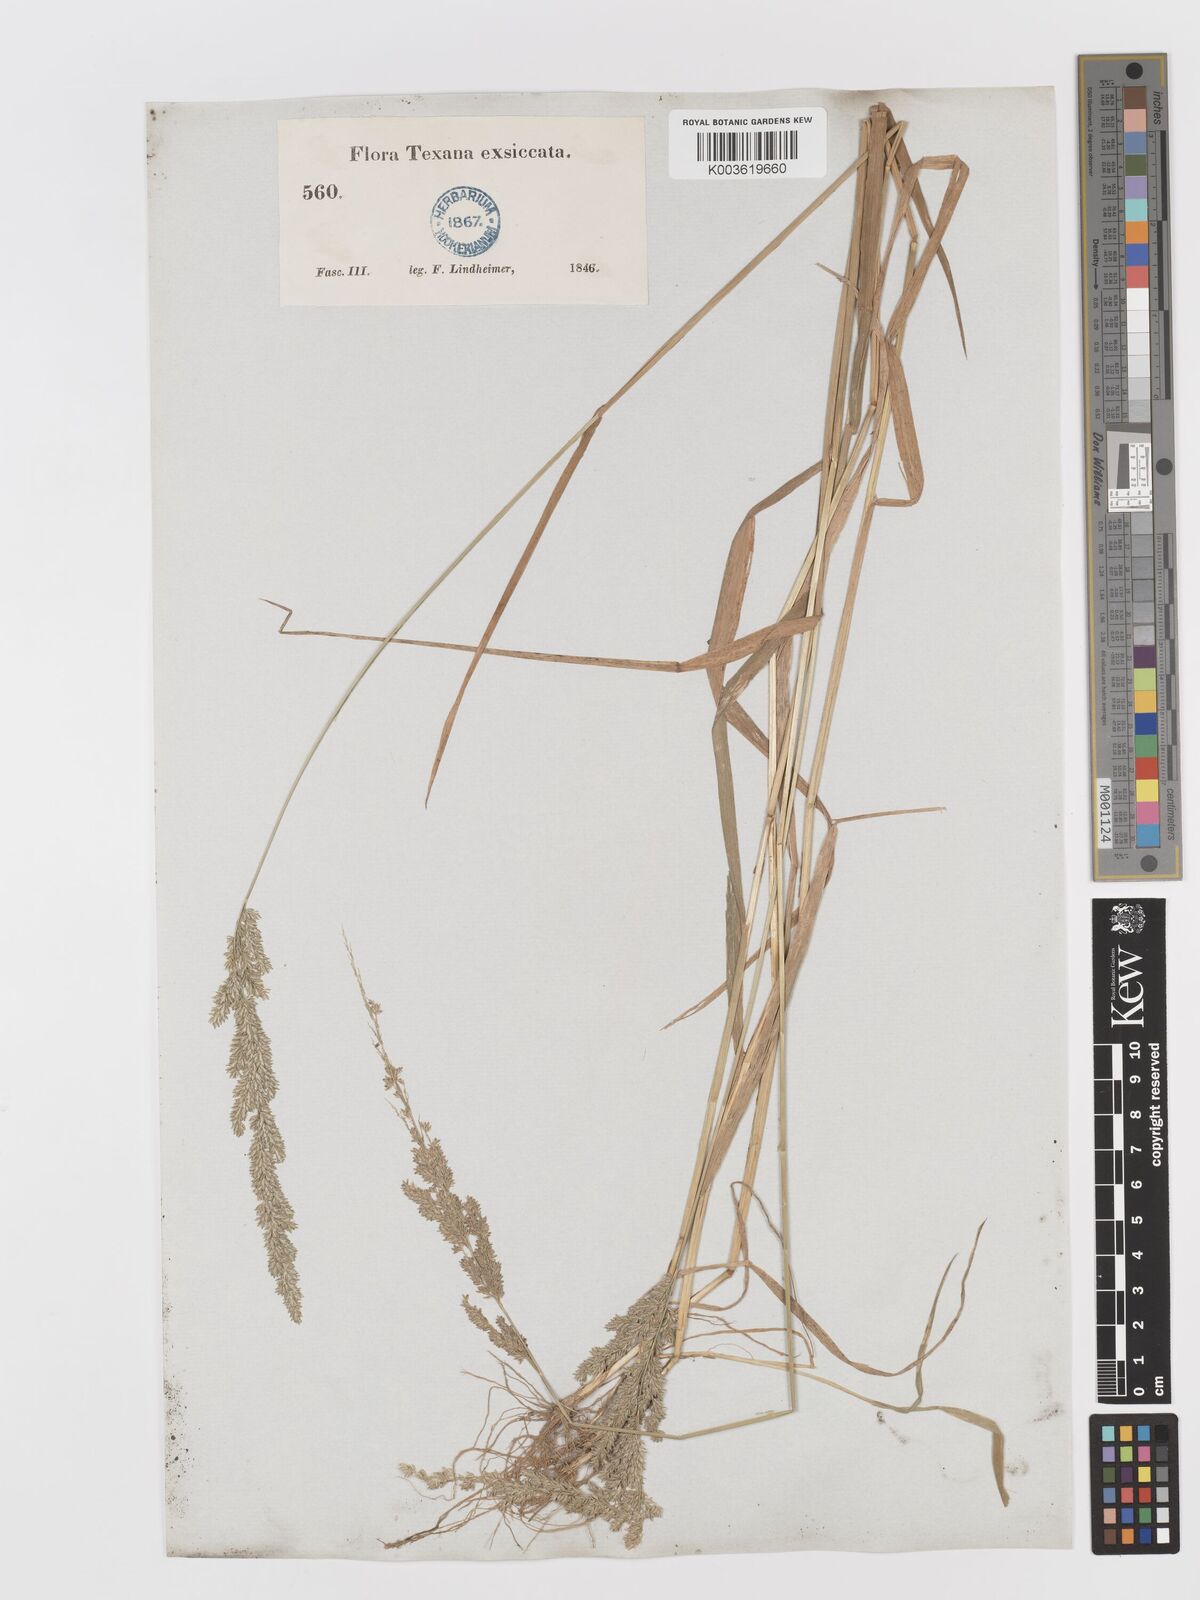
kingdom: Plantae
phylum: Tracheophyta
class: Liliopsida
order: Poales
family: Poaceae
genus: Sphenopholis
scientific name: Sphenopholis obtusata
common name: Prairie grass
